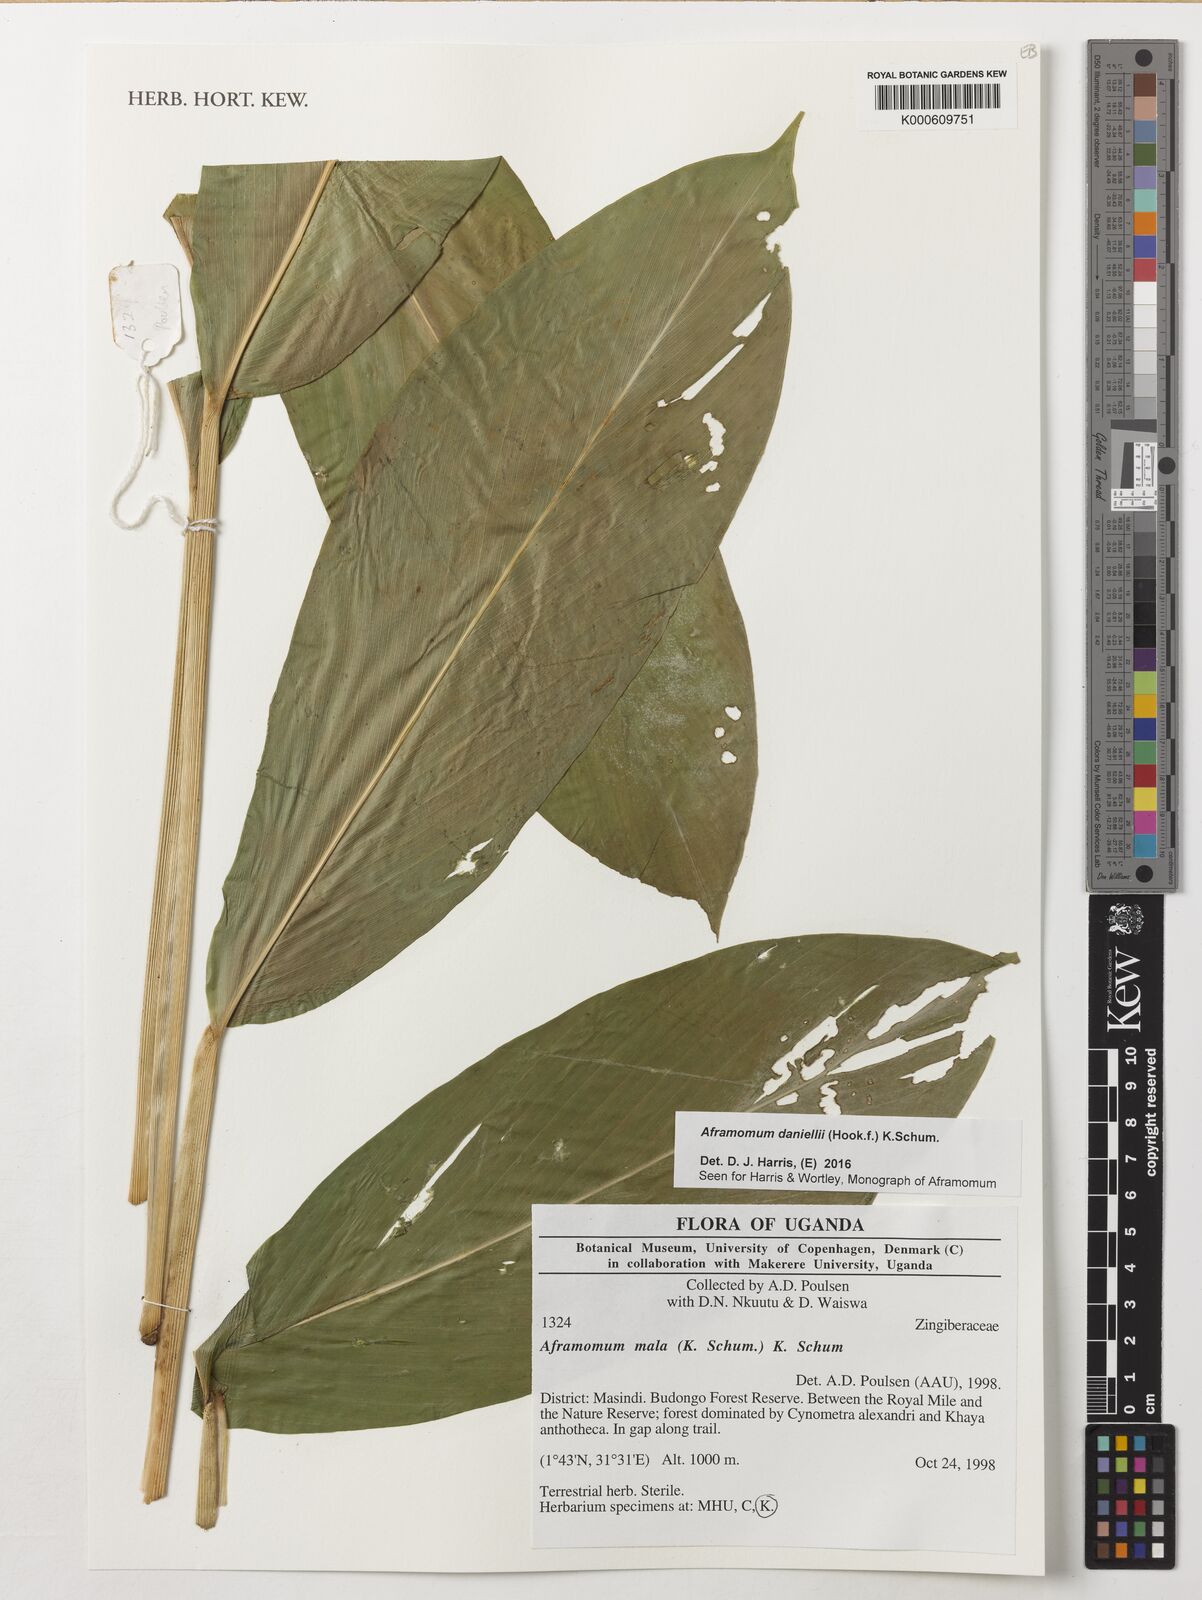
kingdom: Plantae
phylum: Tracheophyta
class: Liliopsida
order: Zingiberales
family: Zingiberaceae
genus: Aframomum
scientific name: Aframomum daniellii
